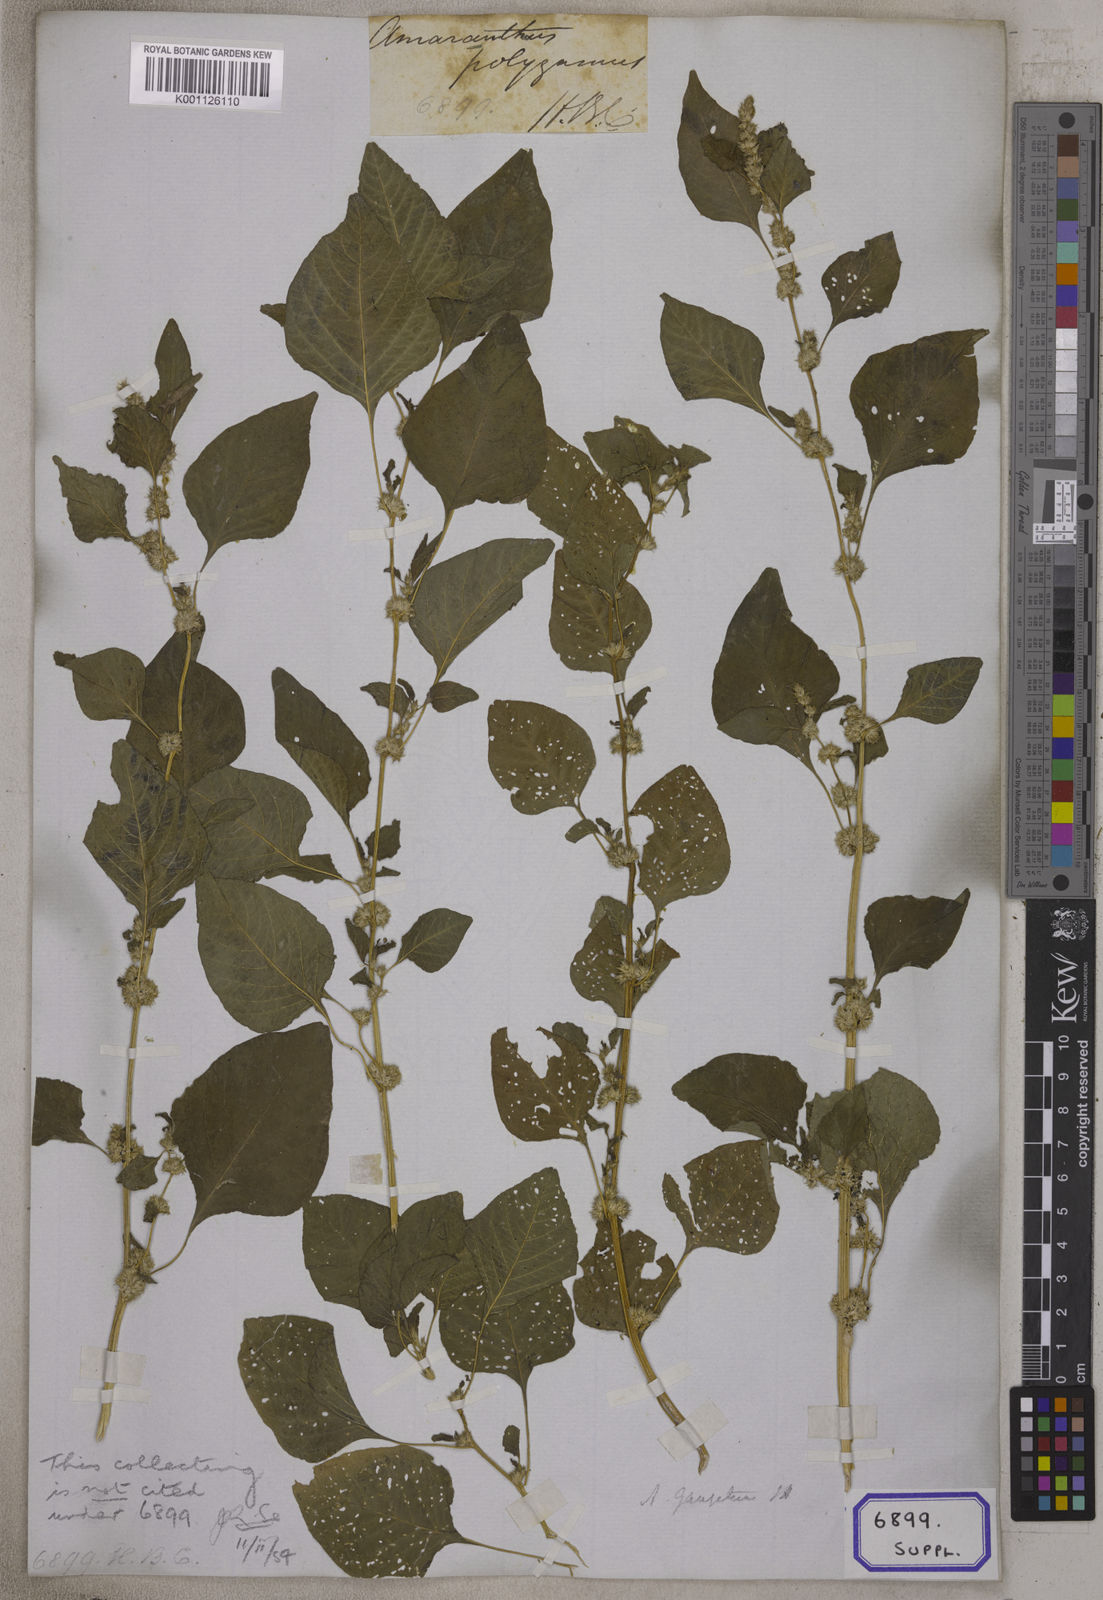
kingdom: Plantae
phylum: Tracheophyta
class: Magnoliopsida
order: Caryophyllales
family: Amaranthaceae
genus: Amaranthus
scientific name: Amaranthus
